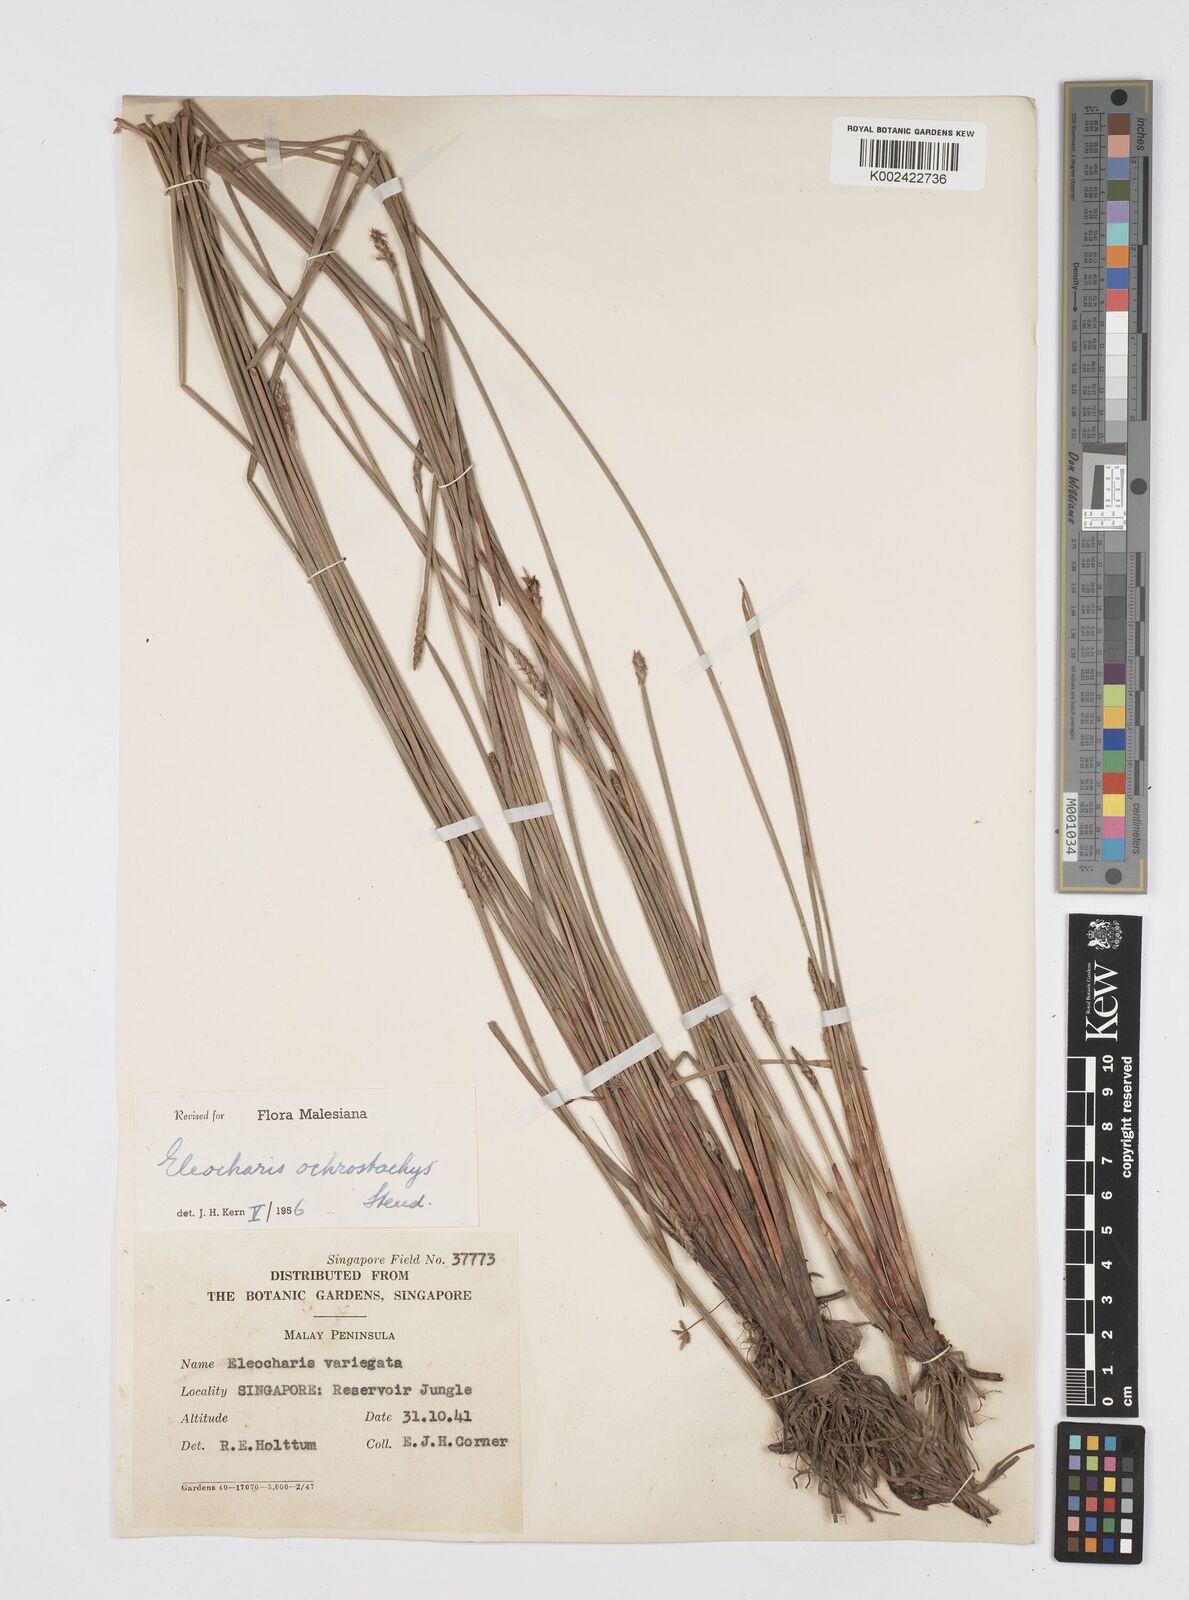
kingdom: Plantae
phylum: Tracheophyta
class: Liliopsida
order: Poales
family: Cyperaceae
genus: Eleocharis
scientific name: Eleocharis ochrostachys
